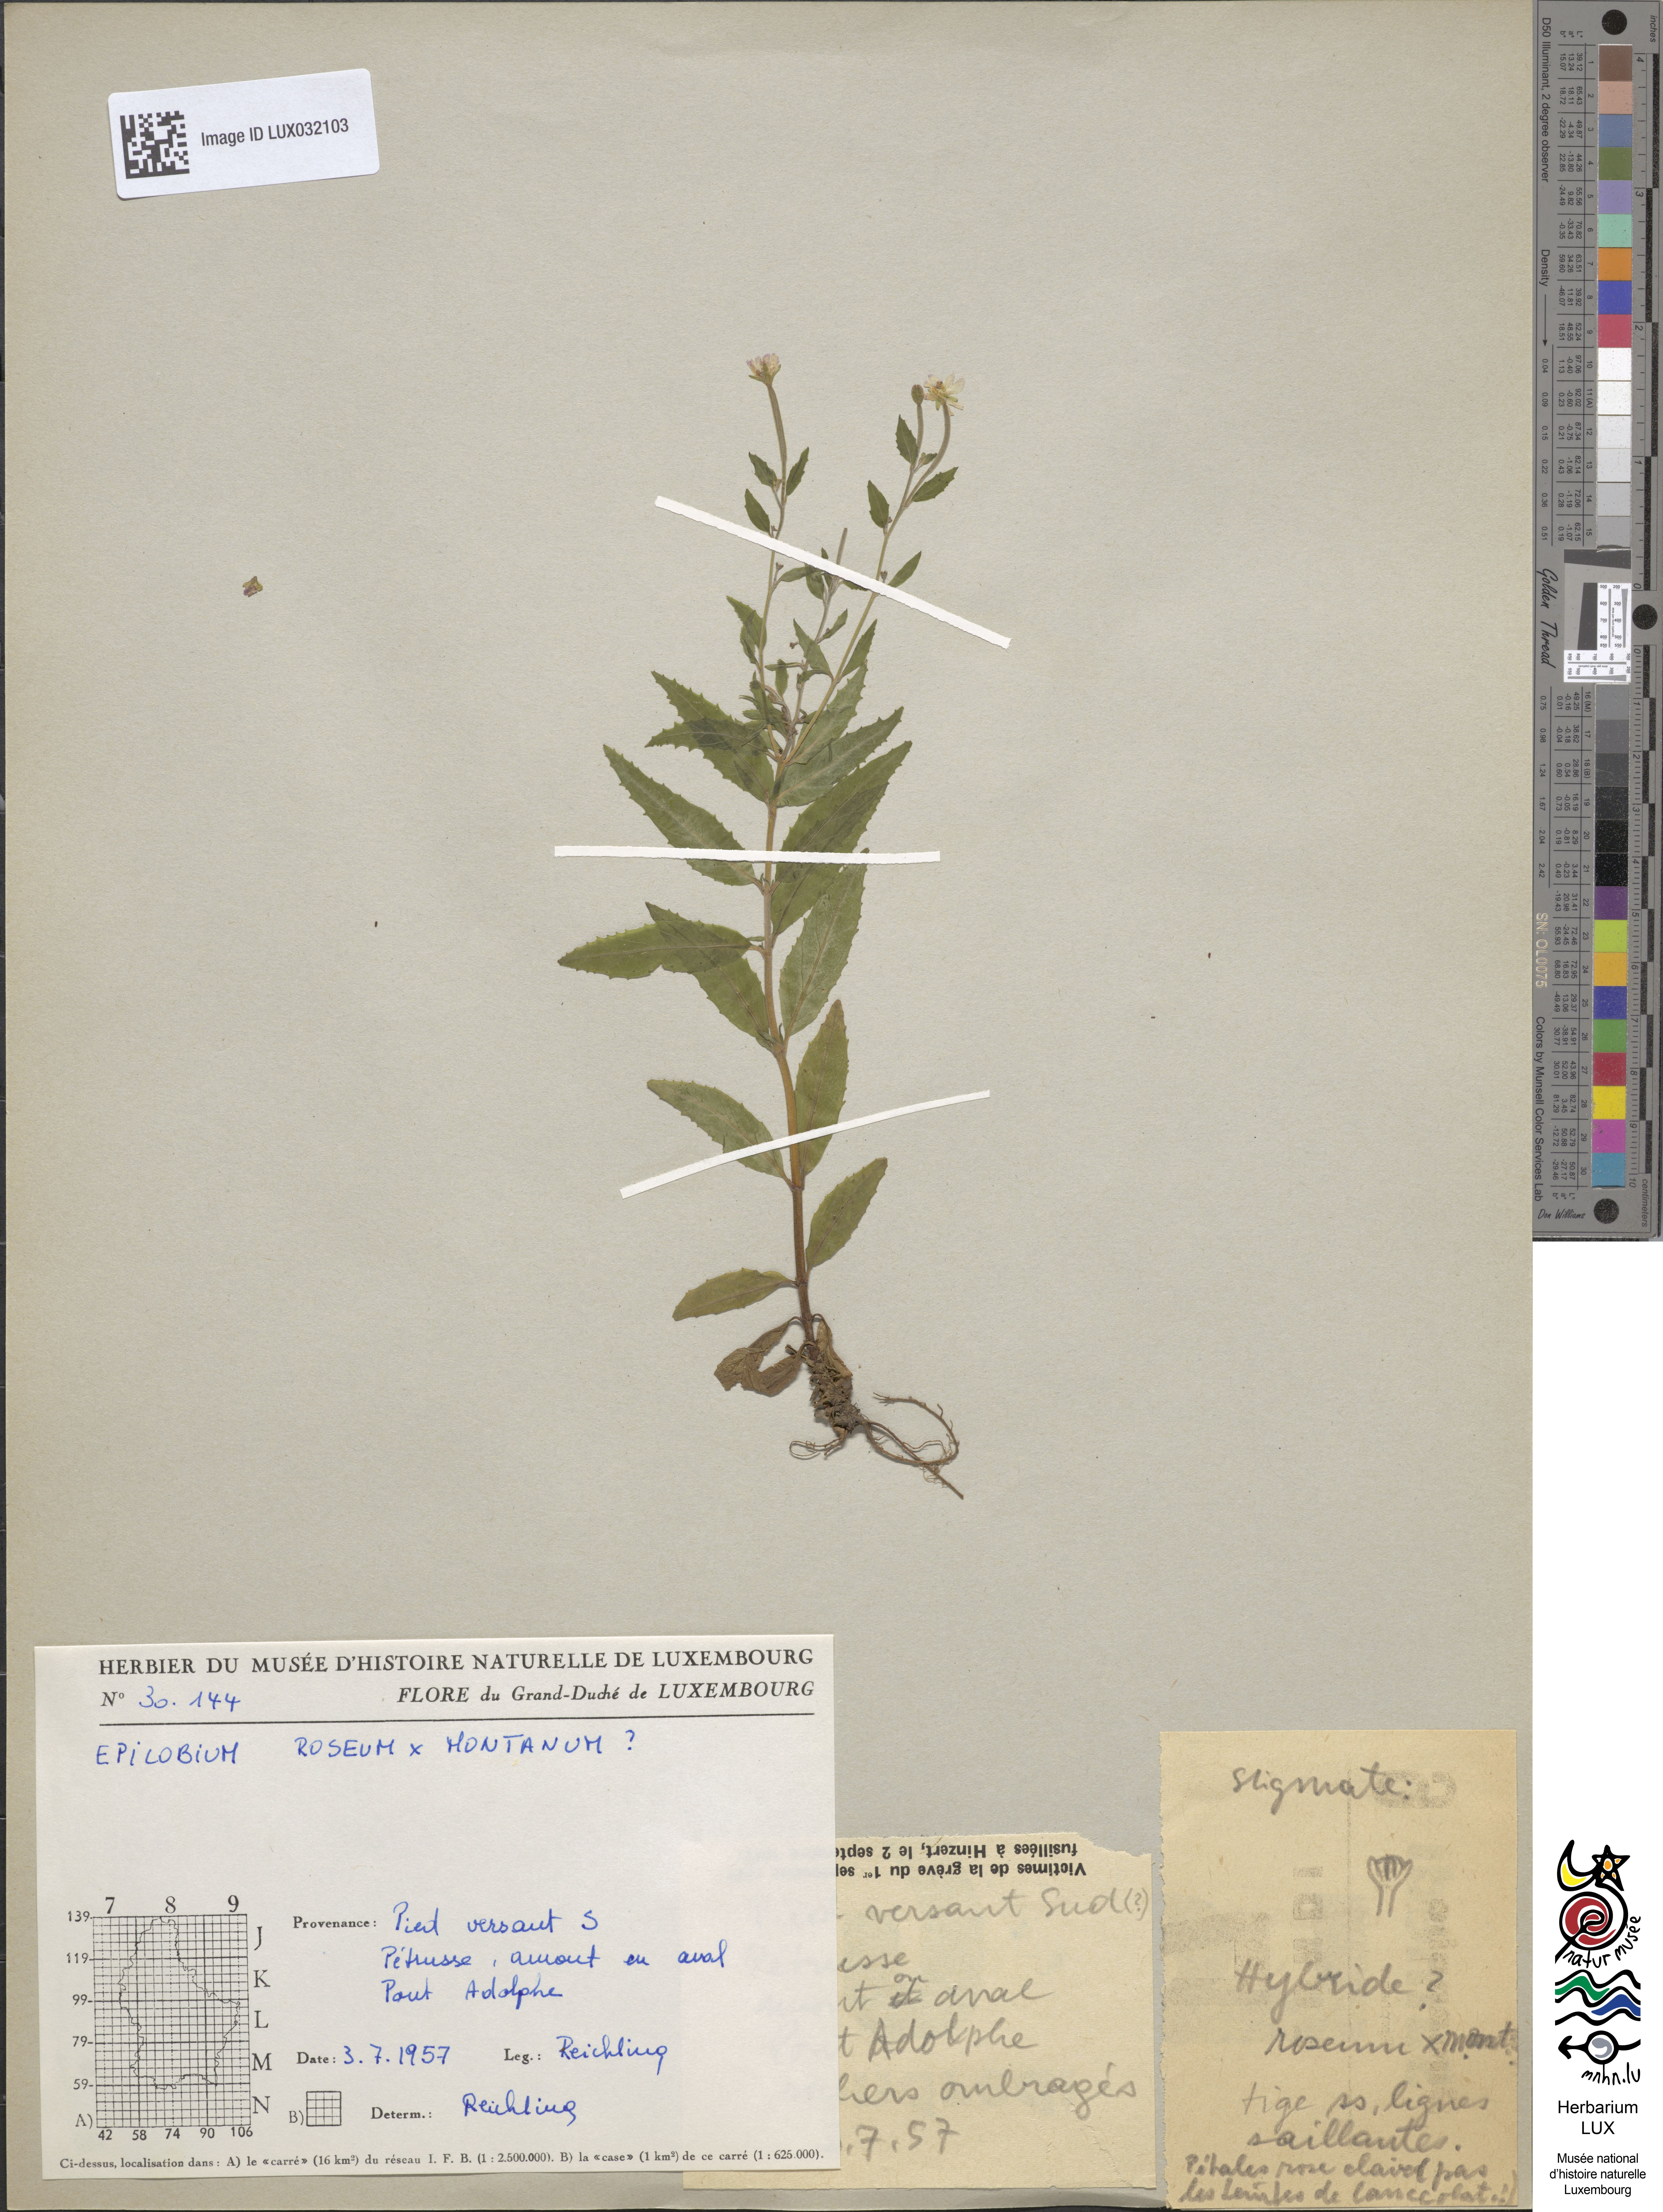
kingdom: Plantae
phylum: Tracheophyta
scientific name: Tracheophyta
